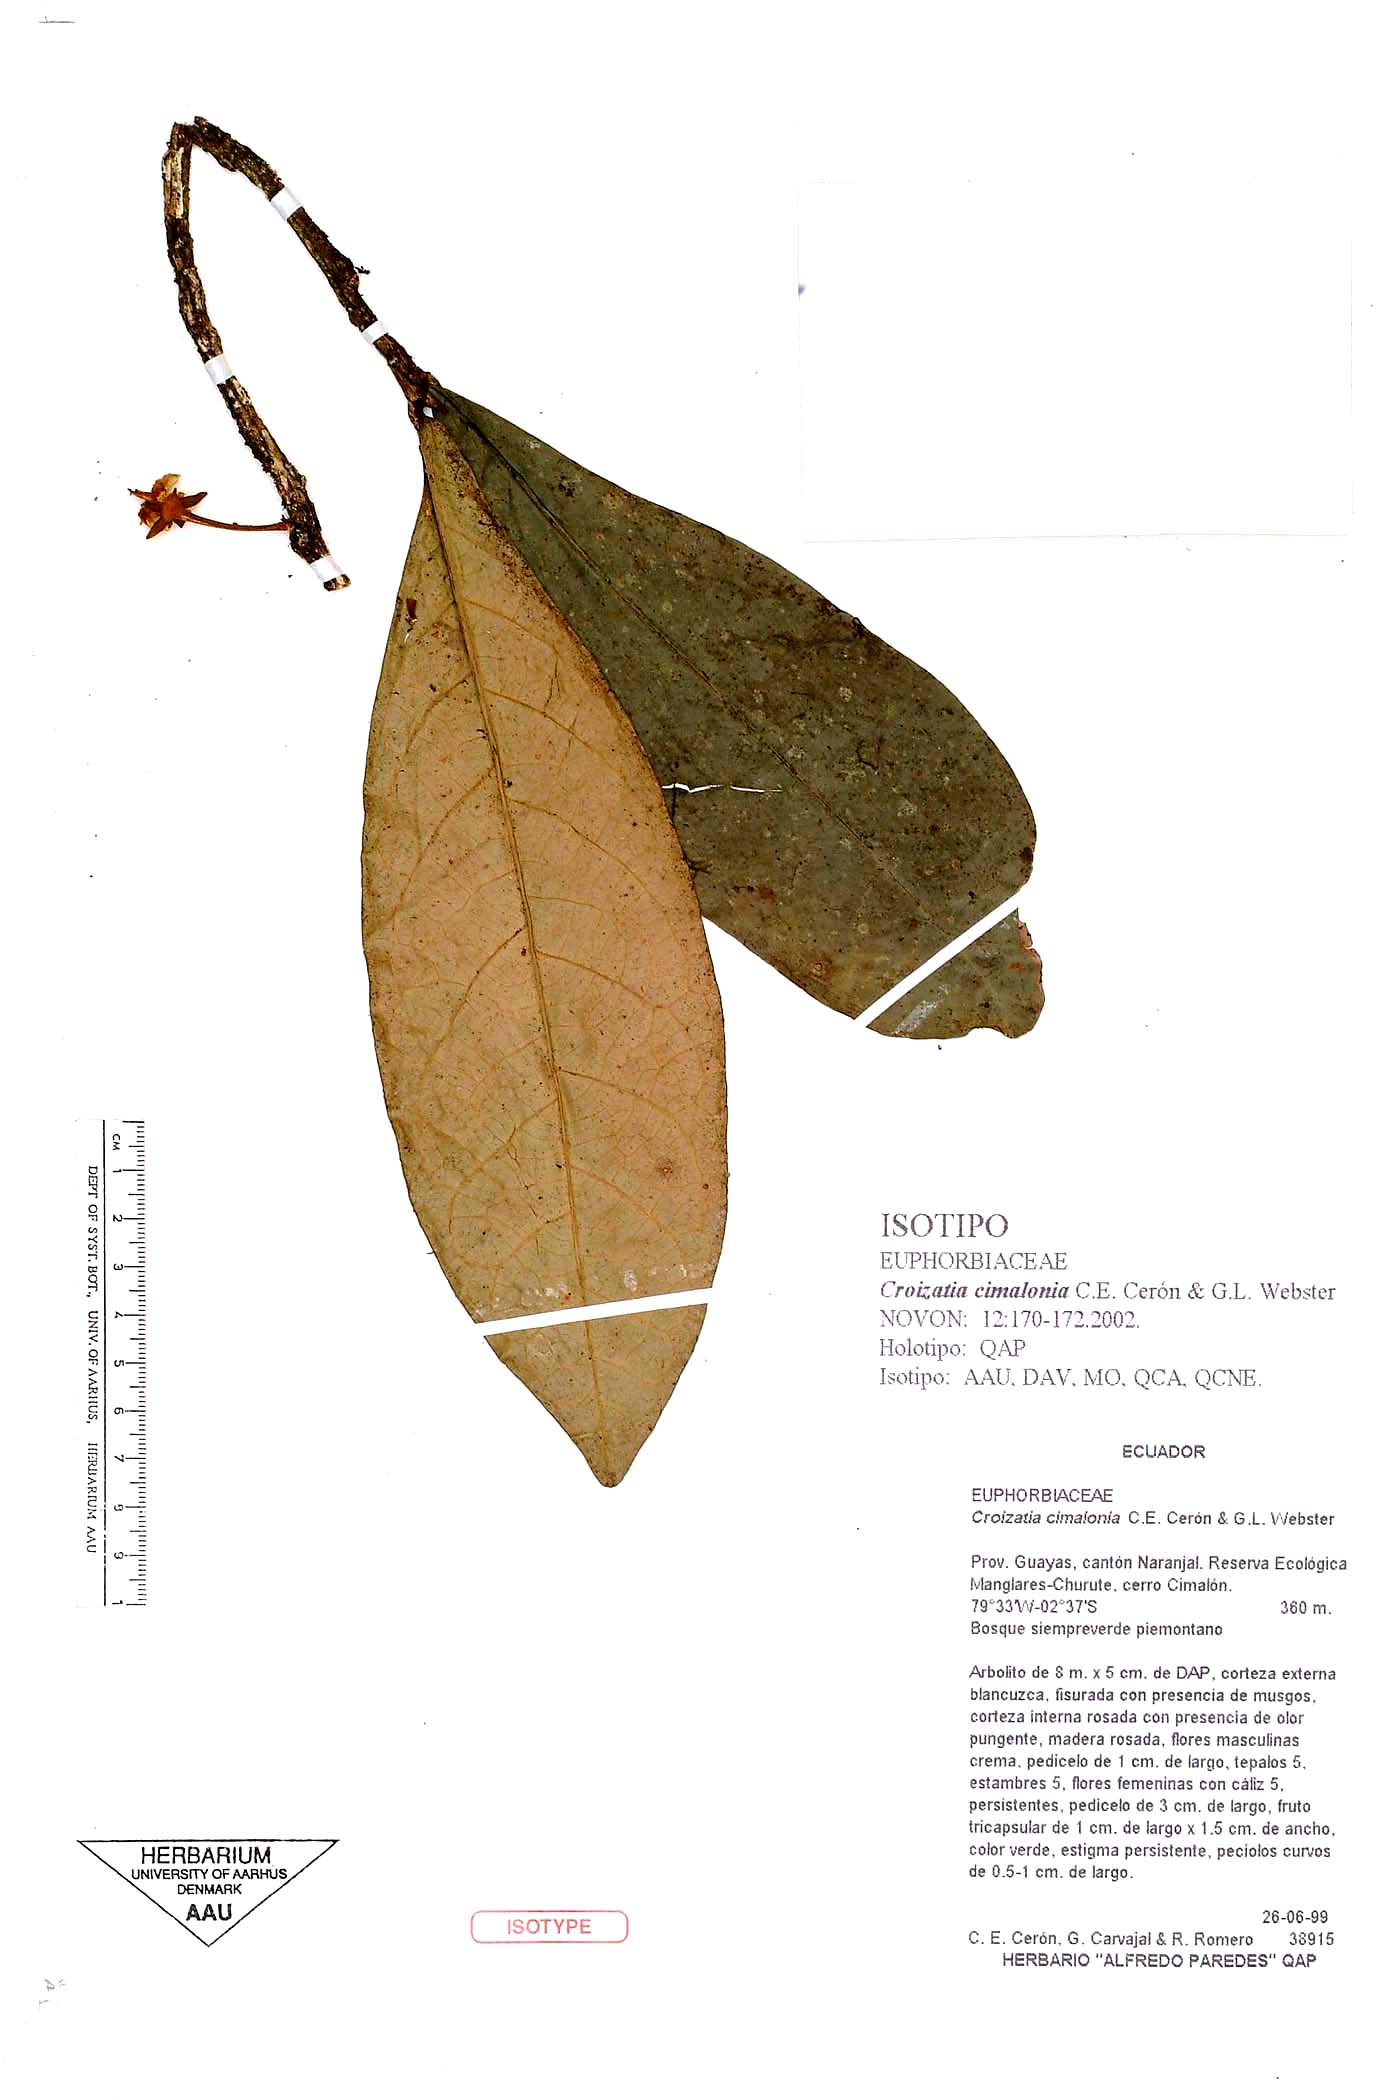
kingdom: Plantae
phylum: Tracheophyta
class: Magnoliopsida
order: Malpighiales
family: Phyllanthaceae
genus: Croizatia
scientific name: Croizatia cimalonia
